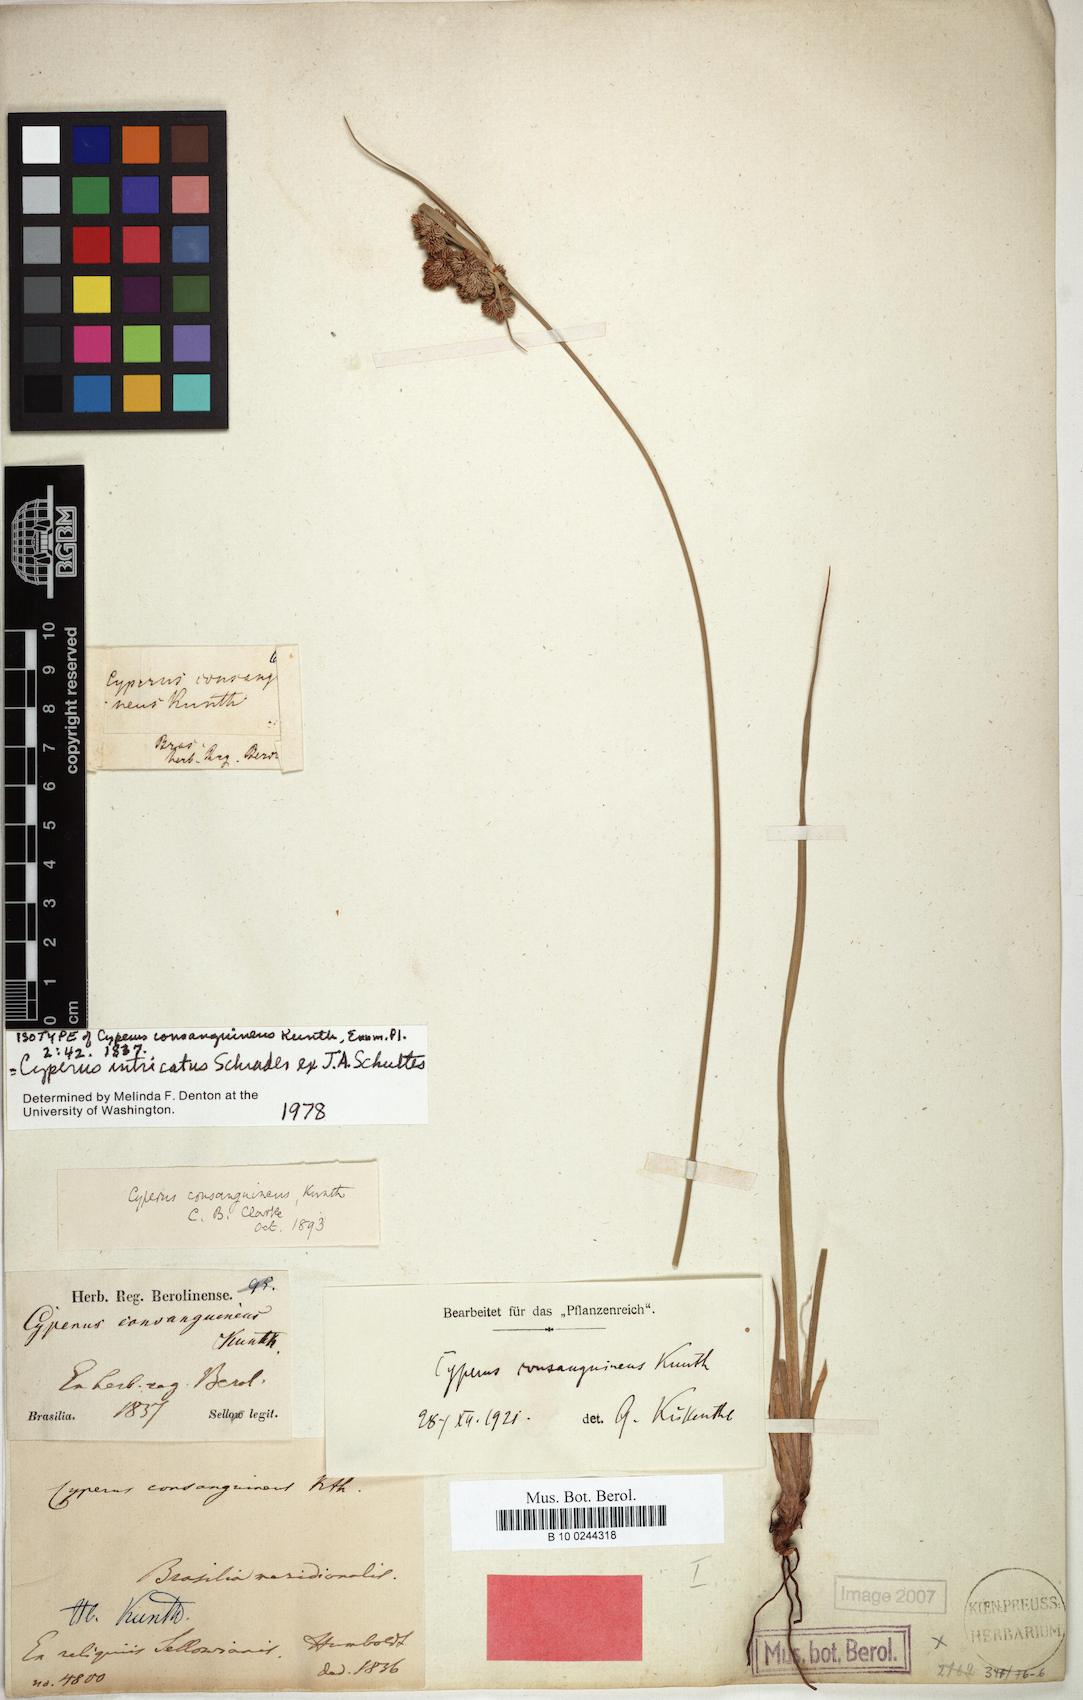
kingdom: Plantae
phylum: Tracheophyta
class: Liliopsida
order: Poales
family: Cyperaceae
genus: Cyperus
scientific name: Cyperus intricatus
